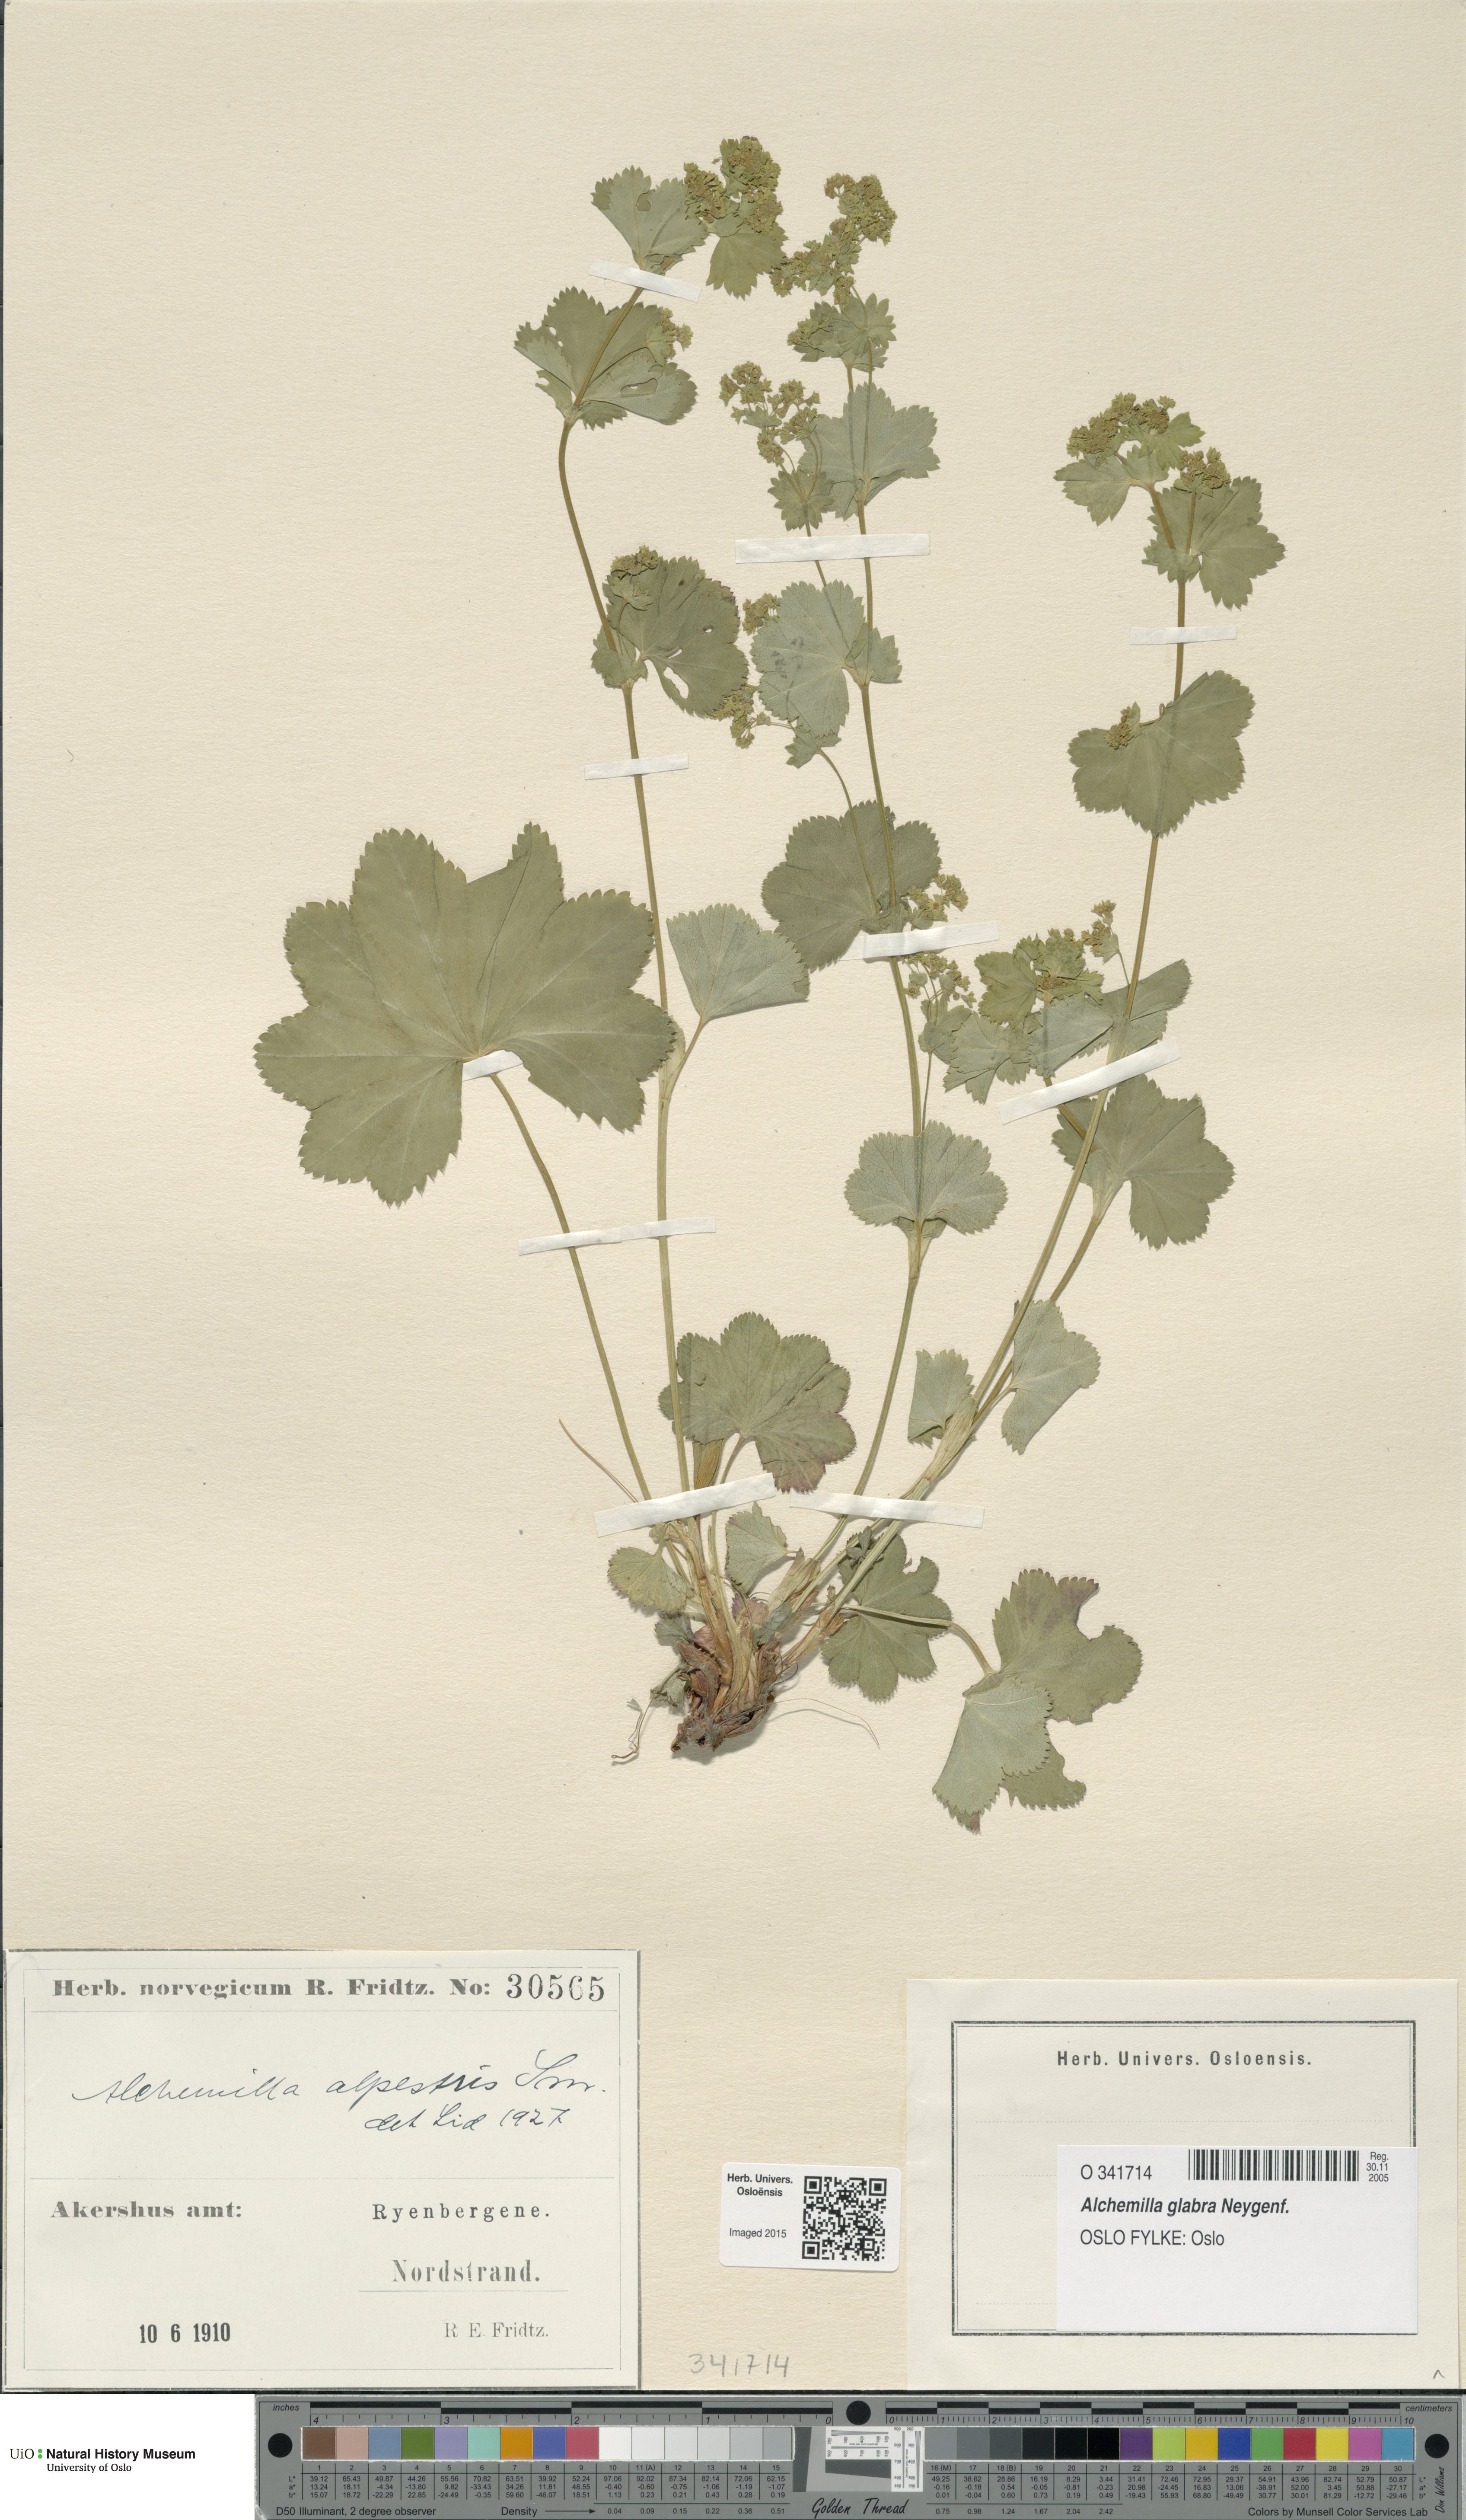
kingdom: Plantae
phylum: Tracheophyta
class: Magnoliopsida
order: Rosales
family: Rosaceae
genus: Alchemilla
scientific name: Alchemilla glabra
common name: Smooth lady's-mantle
